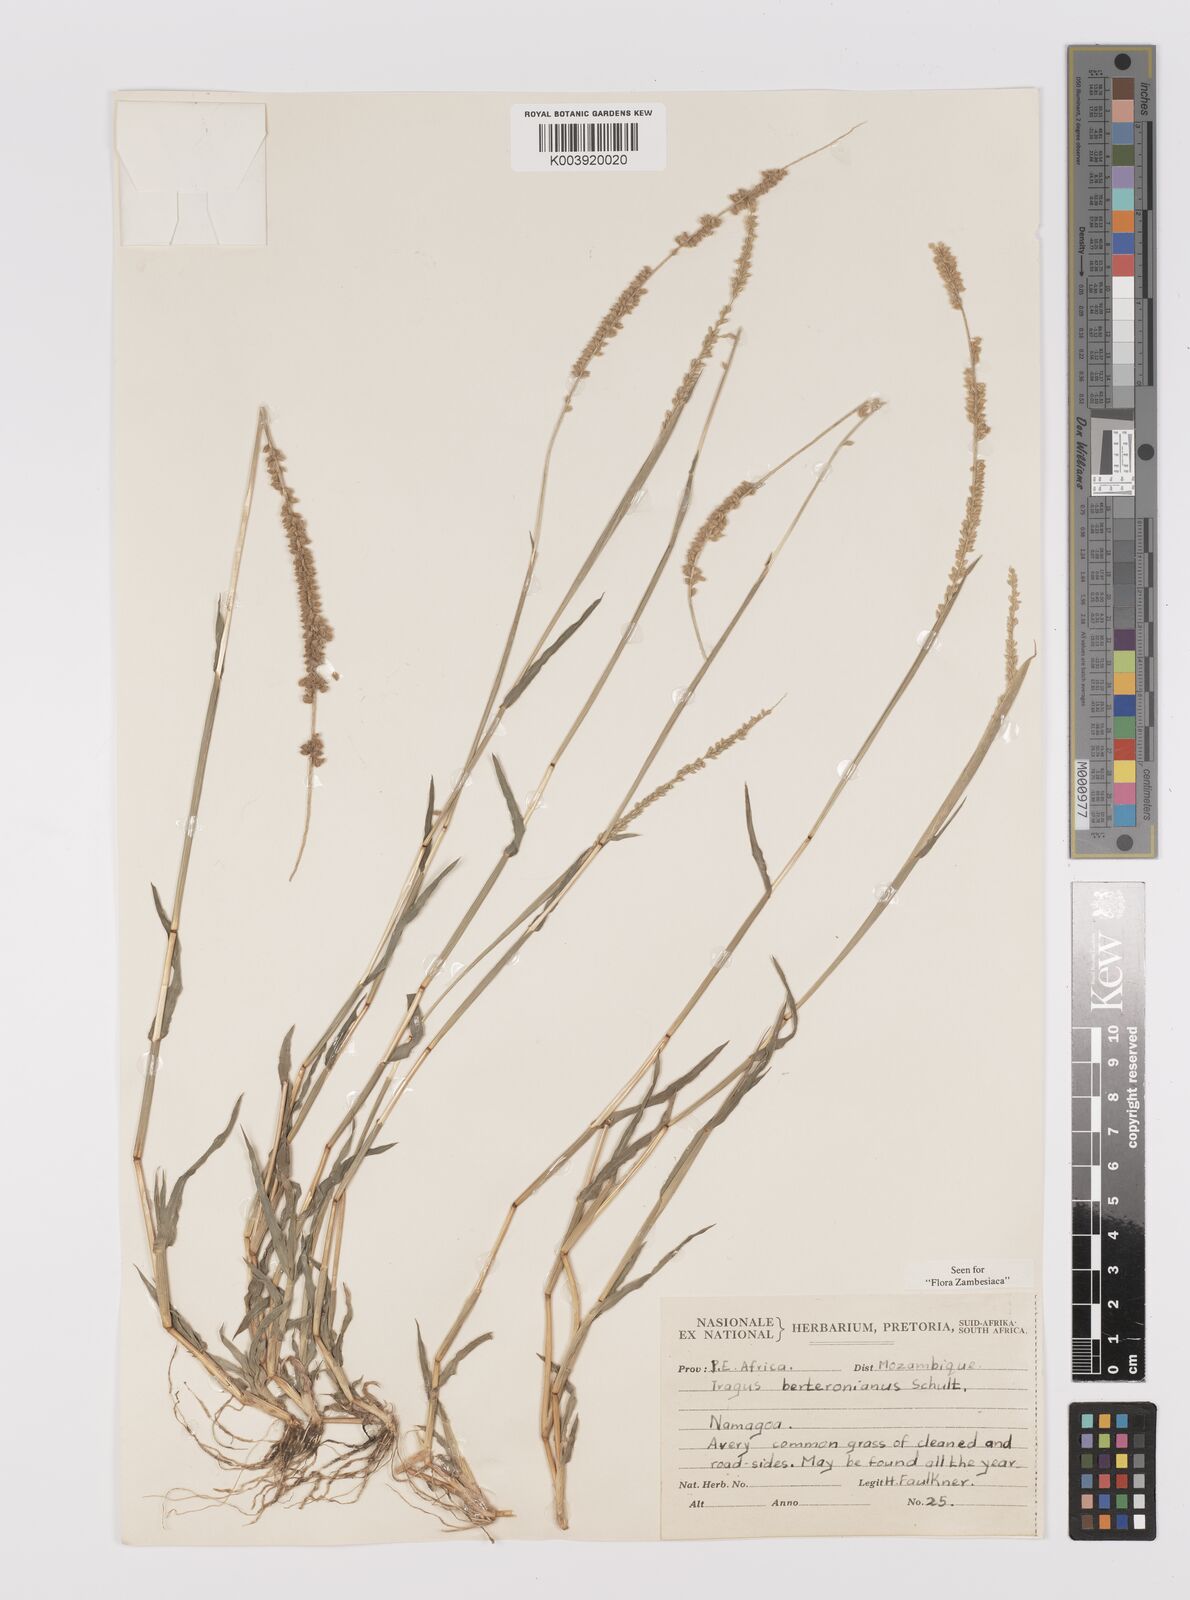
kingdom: Plantae
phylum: Tracheophyta
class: Liliopsida
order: Poales
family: Poaceae
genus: Tragus
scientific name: Tragus berteronianus
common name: African bur-grass
